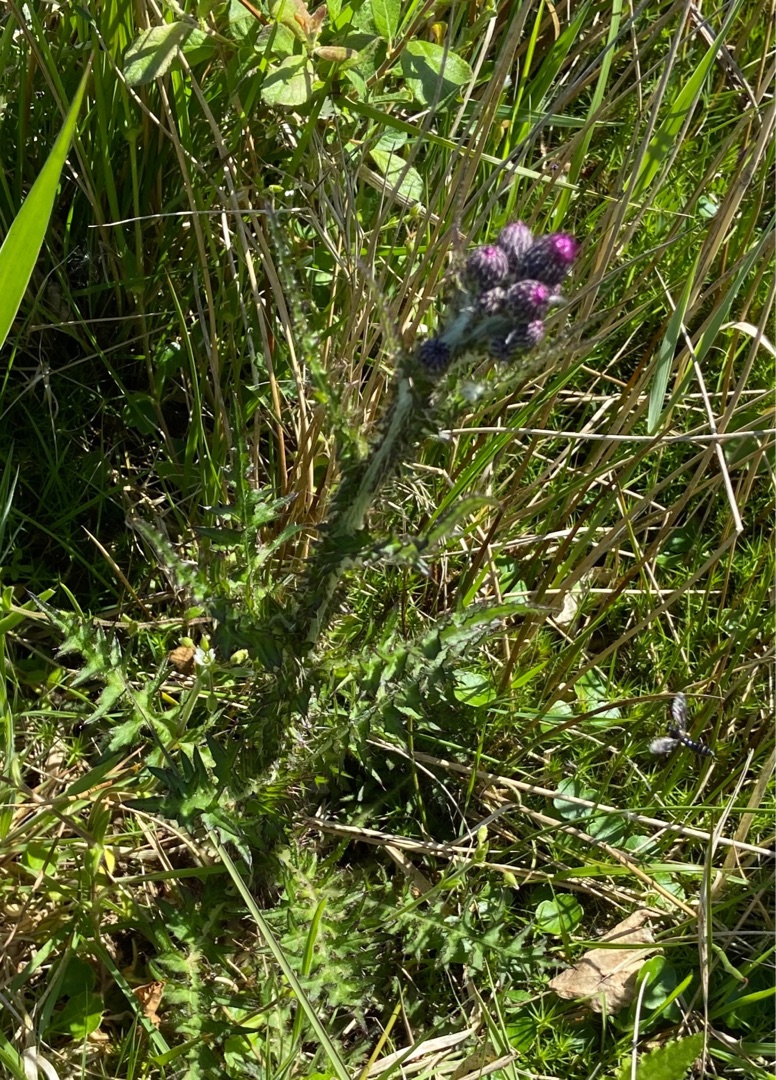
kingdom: Plantae
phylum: Tracheophyta
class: Magnoliopsida
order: Asterales
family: Asteraceae
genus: Cirsium
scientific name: Cirsium palustre
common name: Kær-tidsel
